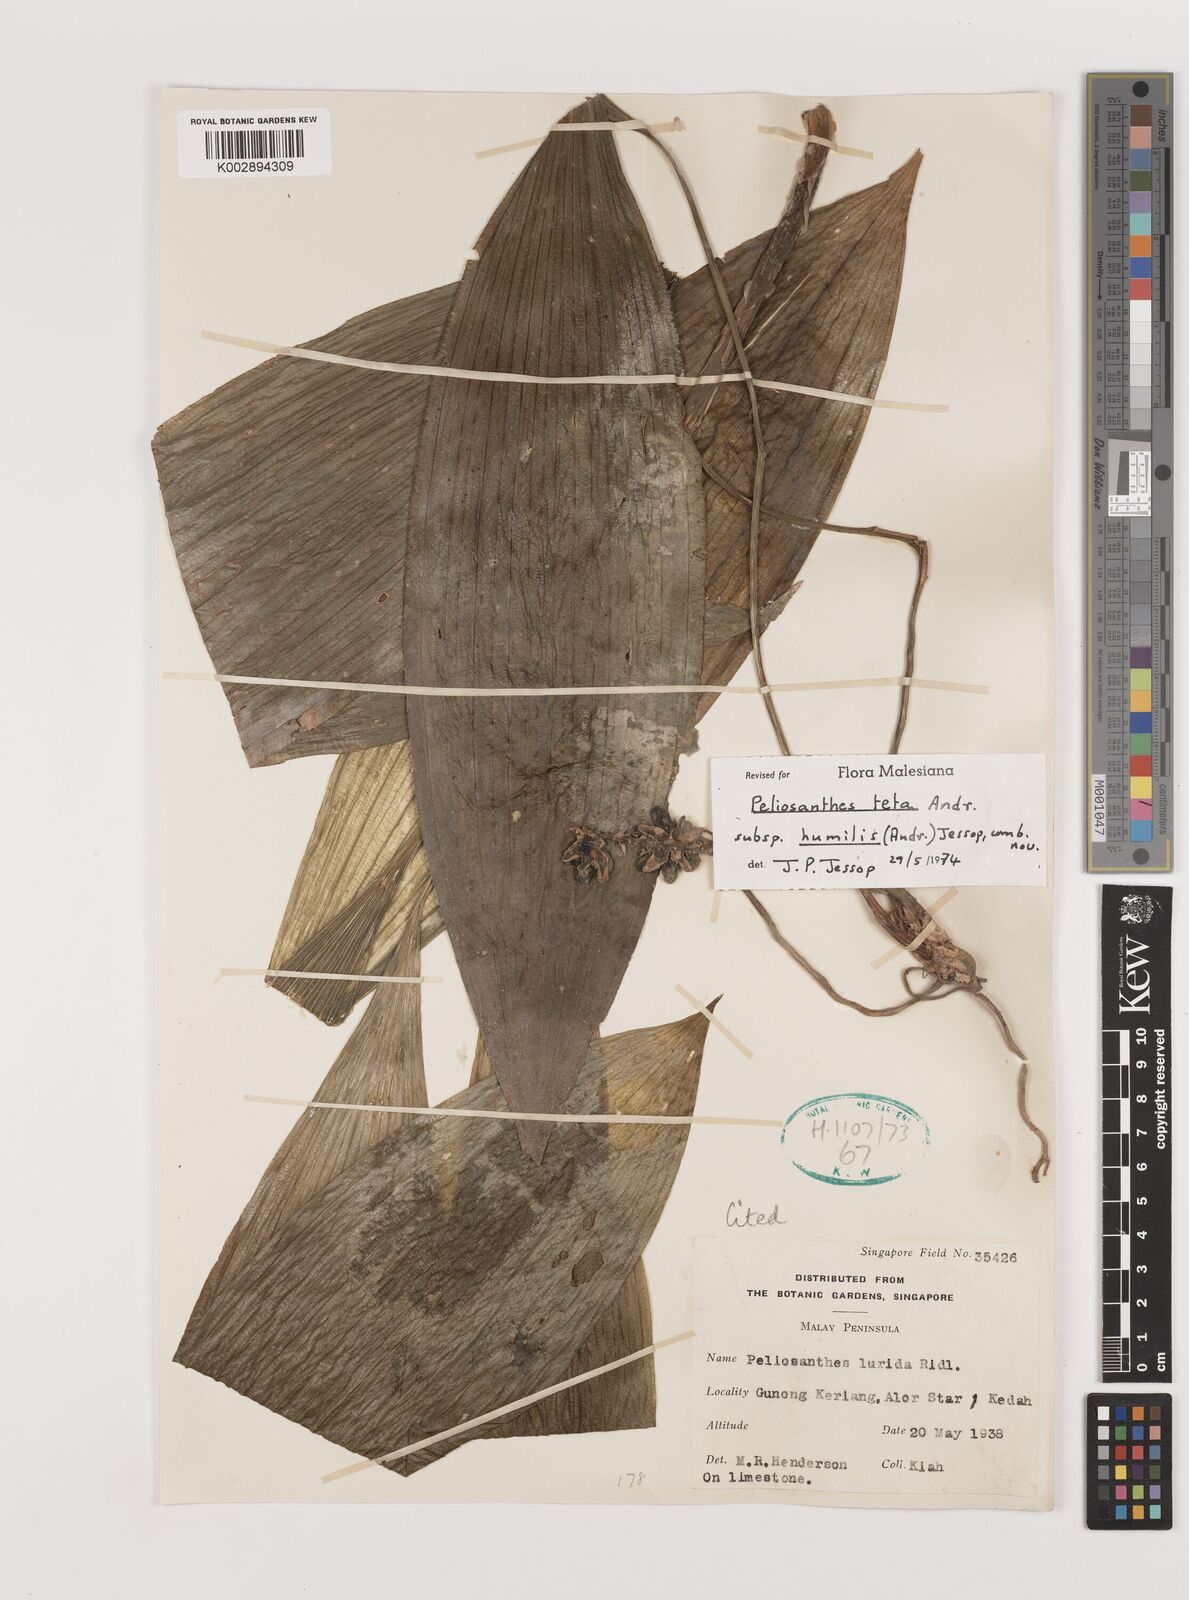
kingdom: Plantae
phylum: Tracheophyta
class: Liliopsida
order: Asparagales
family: Asparagaceae
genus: Peliosanthes
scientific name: Peliosanthes teta
